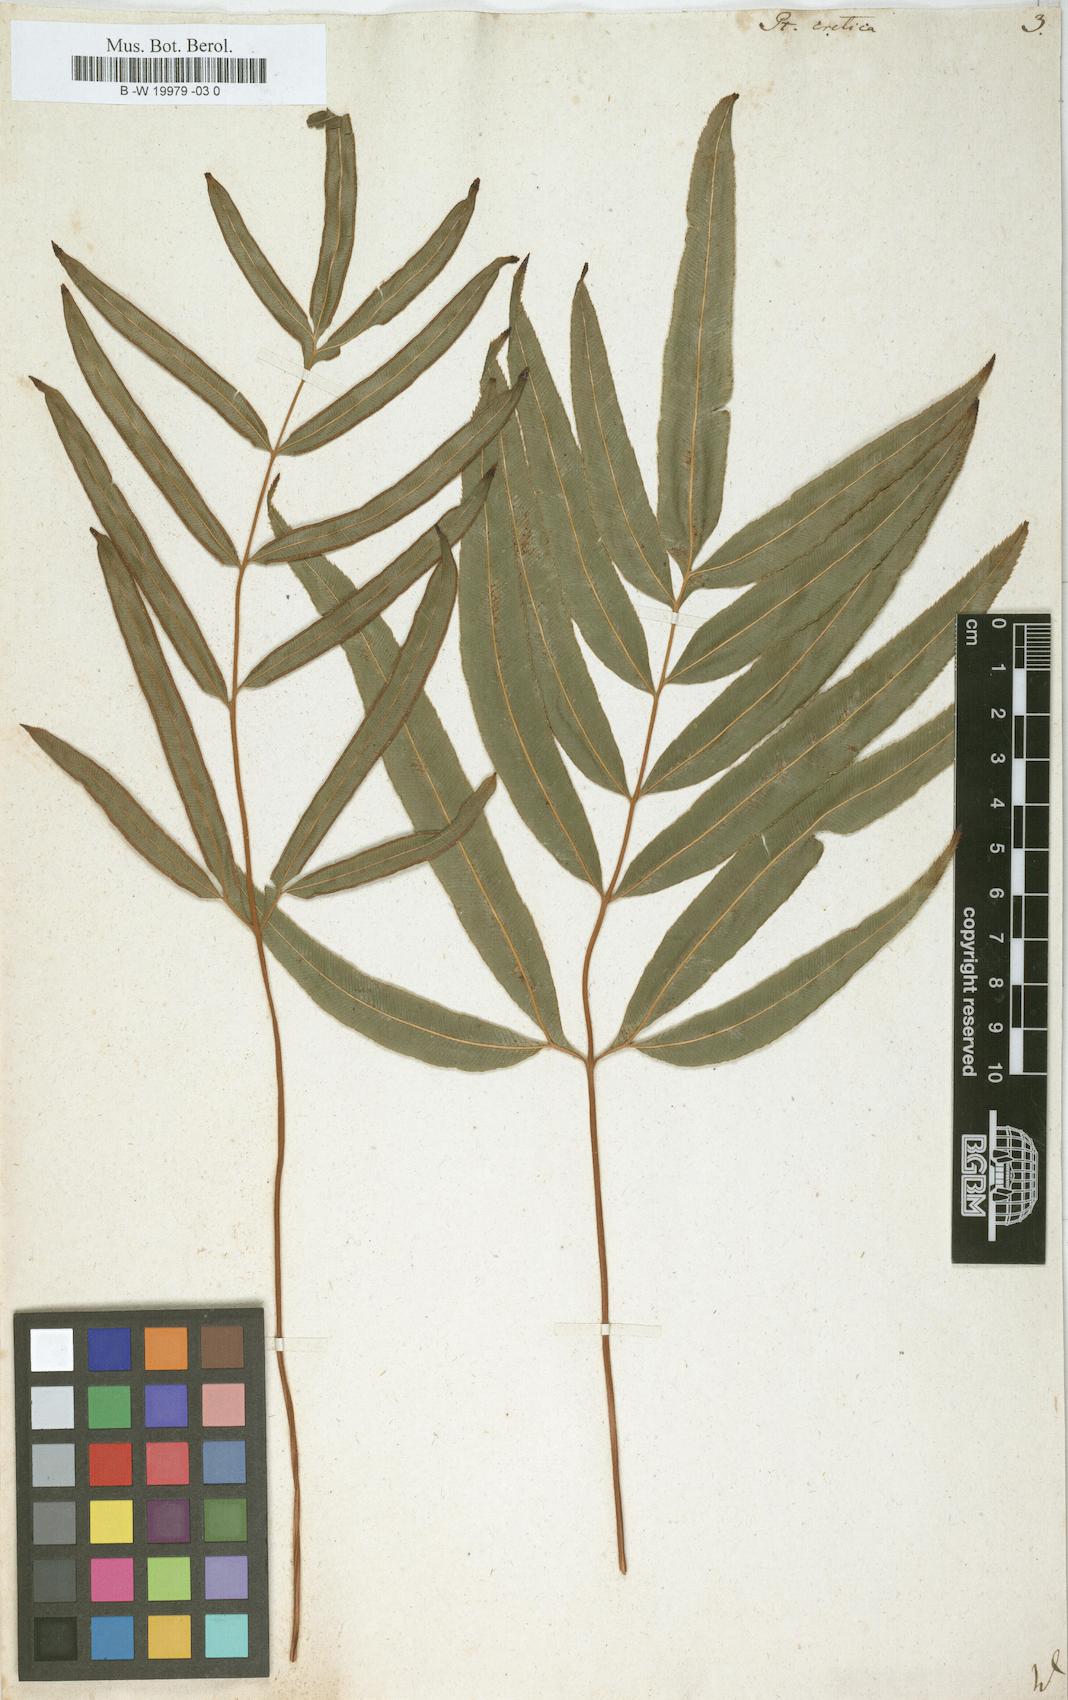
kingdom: Plantae
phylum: Tracheophyta
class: Polypodiopsida
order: Polypodiales
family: Pteridaceae
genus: Pteris
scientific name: Pteris cretica
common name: Ribbon fern
